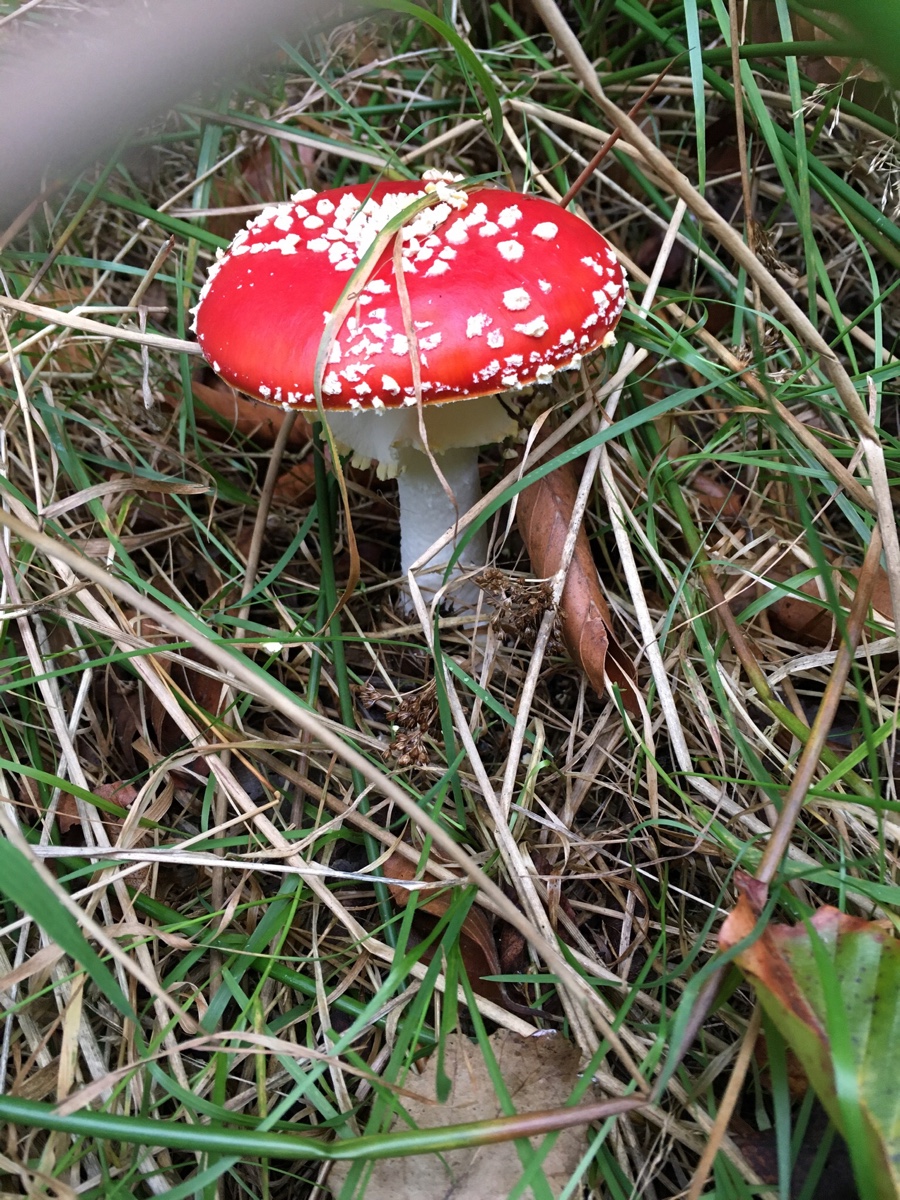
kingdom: Fungi
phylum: Basidiomycota
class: Agaricomycetes
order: Agaricales
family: Amanitaceae
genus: Amanita
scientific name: Amanita muscaria
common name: rød fluesvamp
